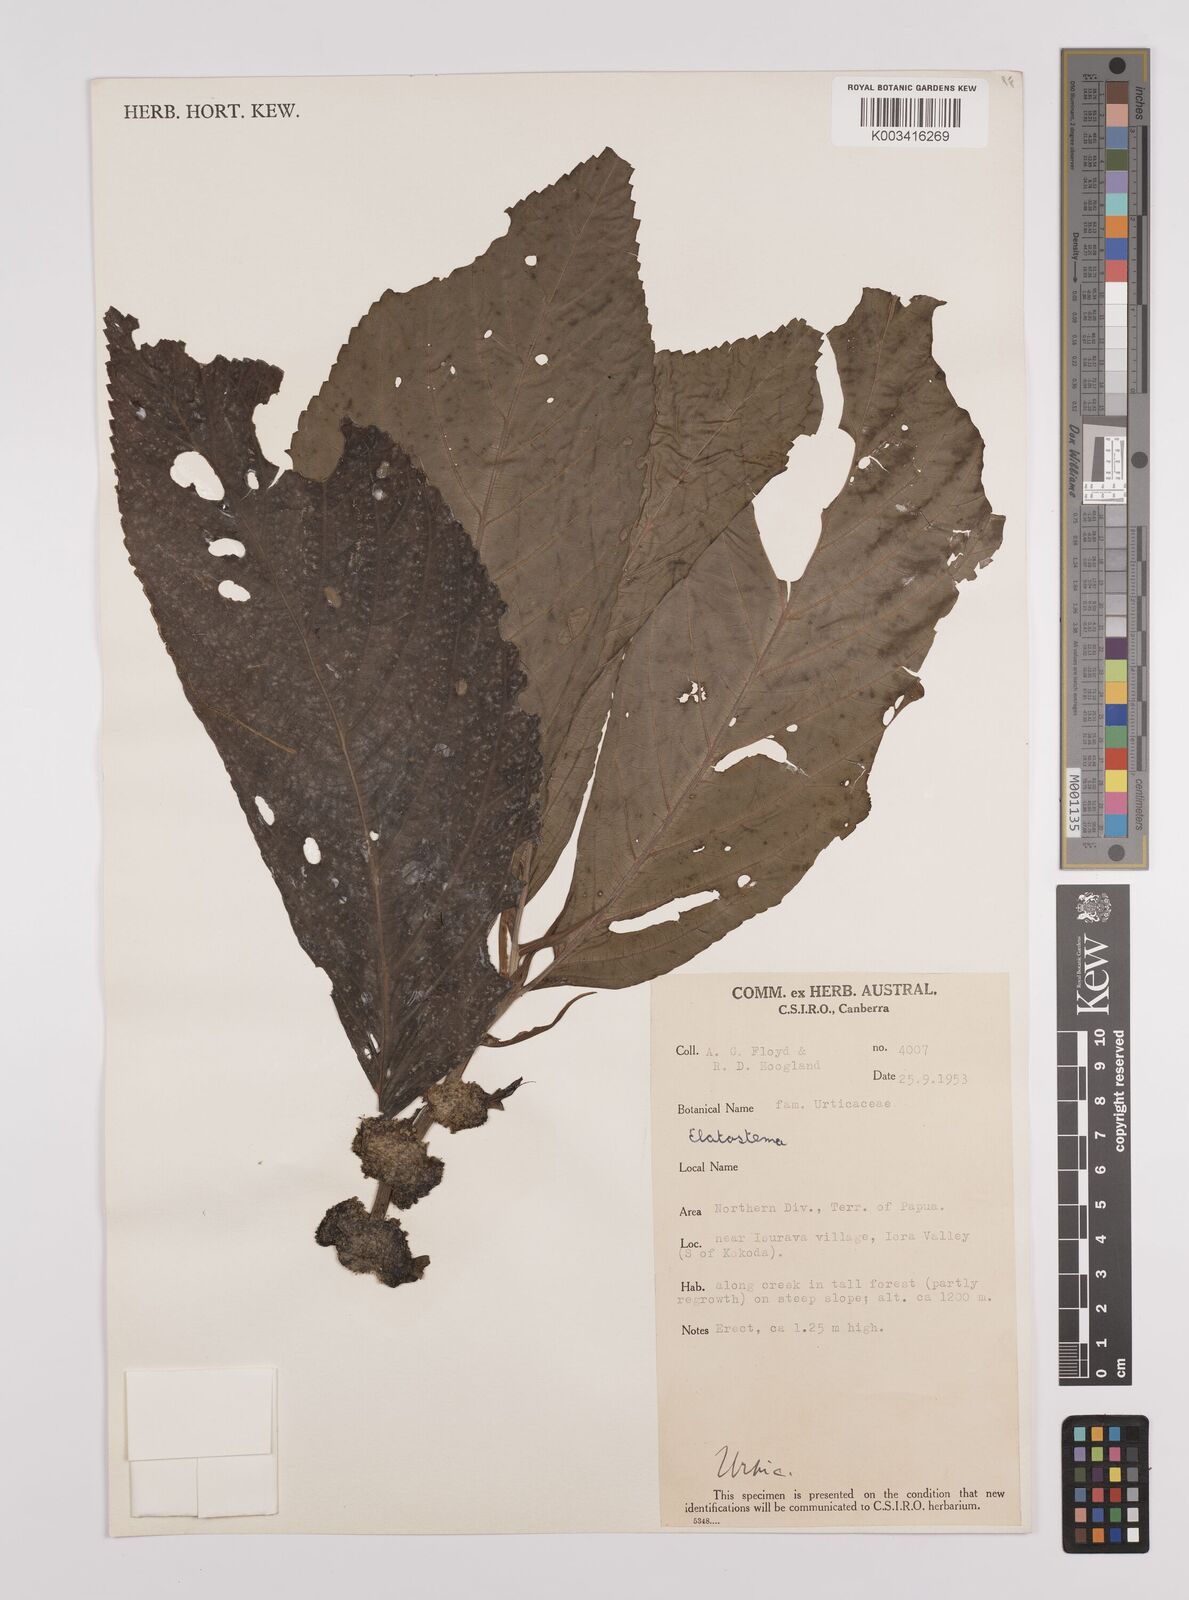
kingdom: Plantae
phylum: Tracheophyta
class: Magnoliopsida
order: Rosales
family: Urticaceae
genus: Elatostema
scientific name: Elatostema lauterbachii
